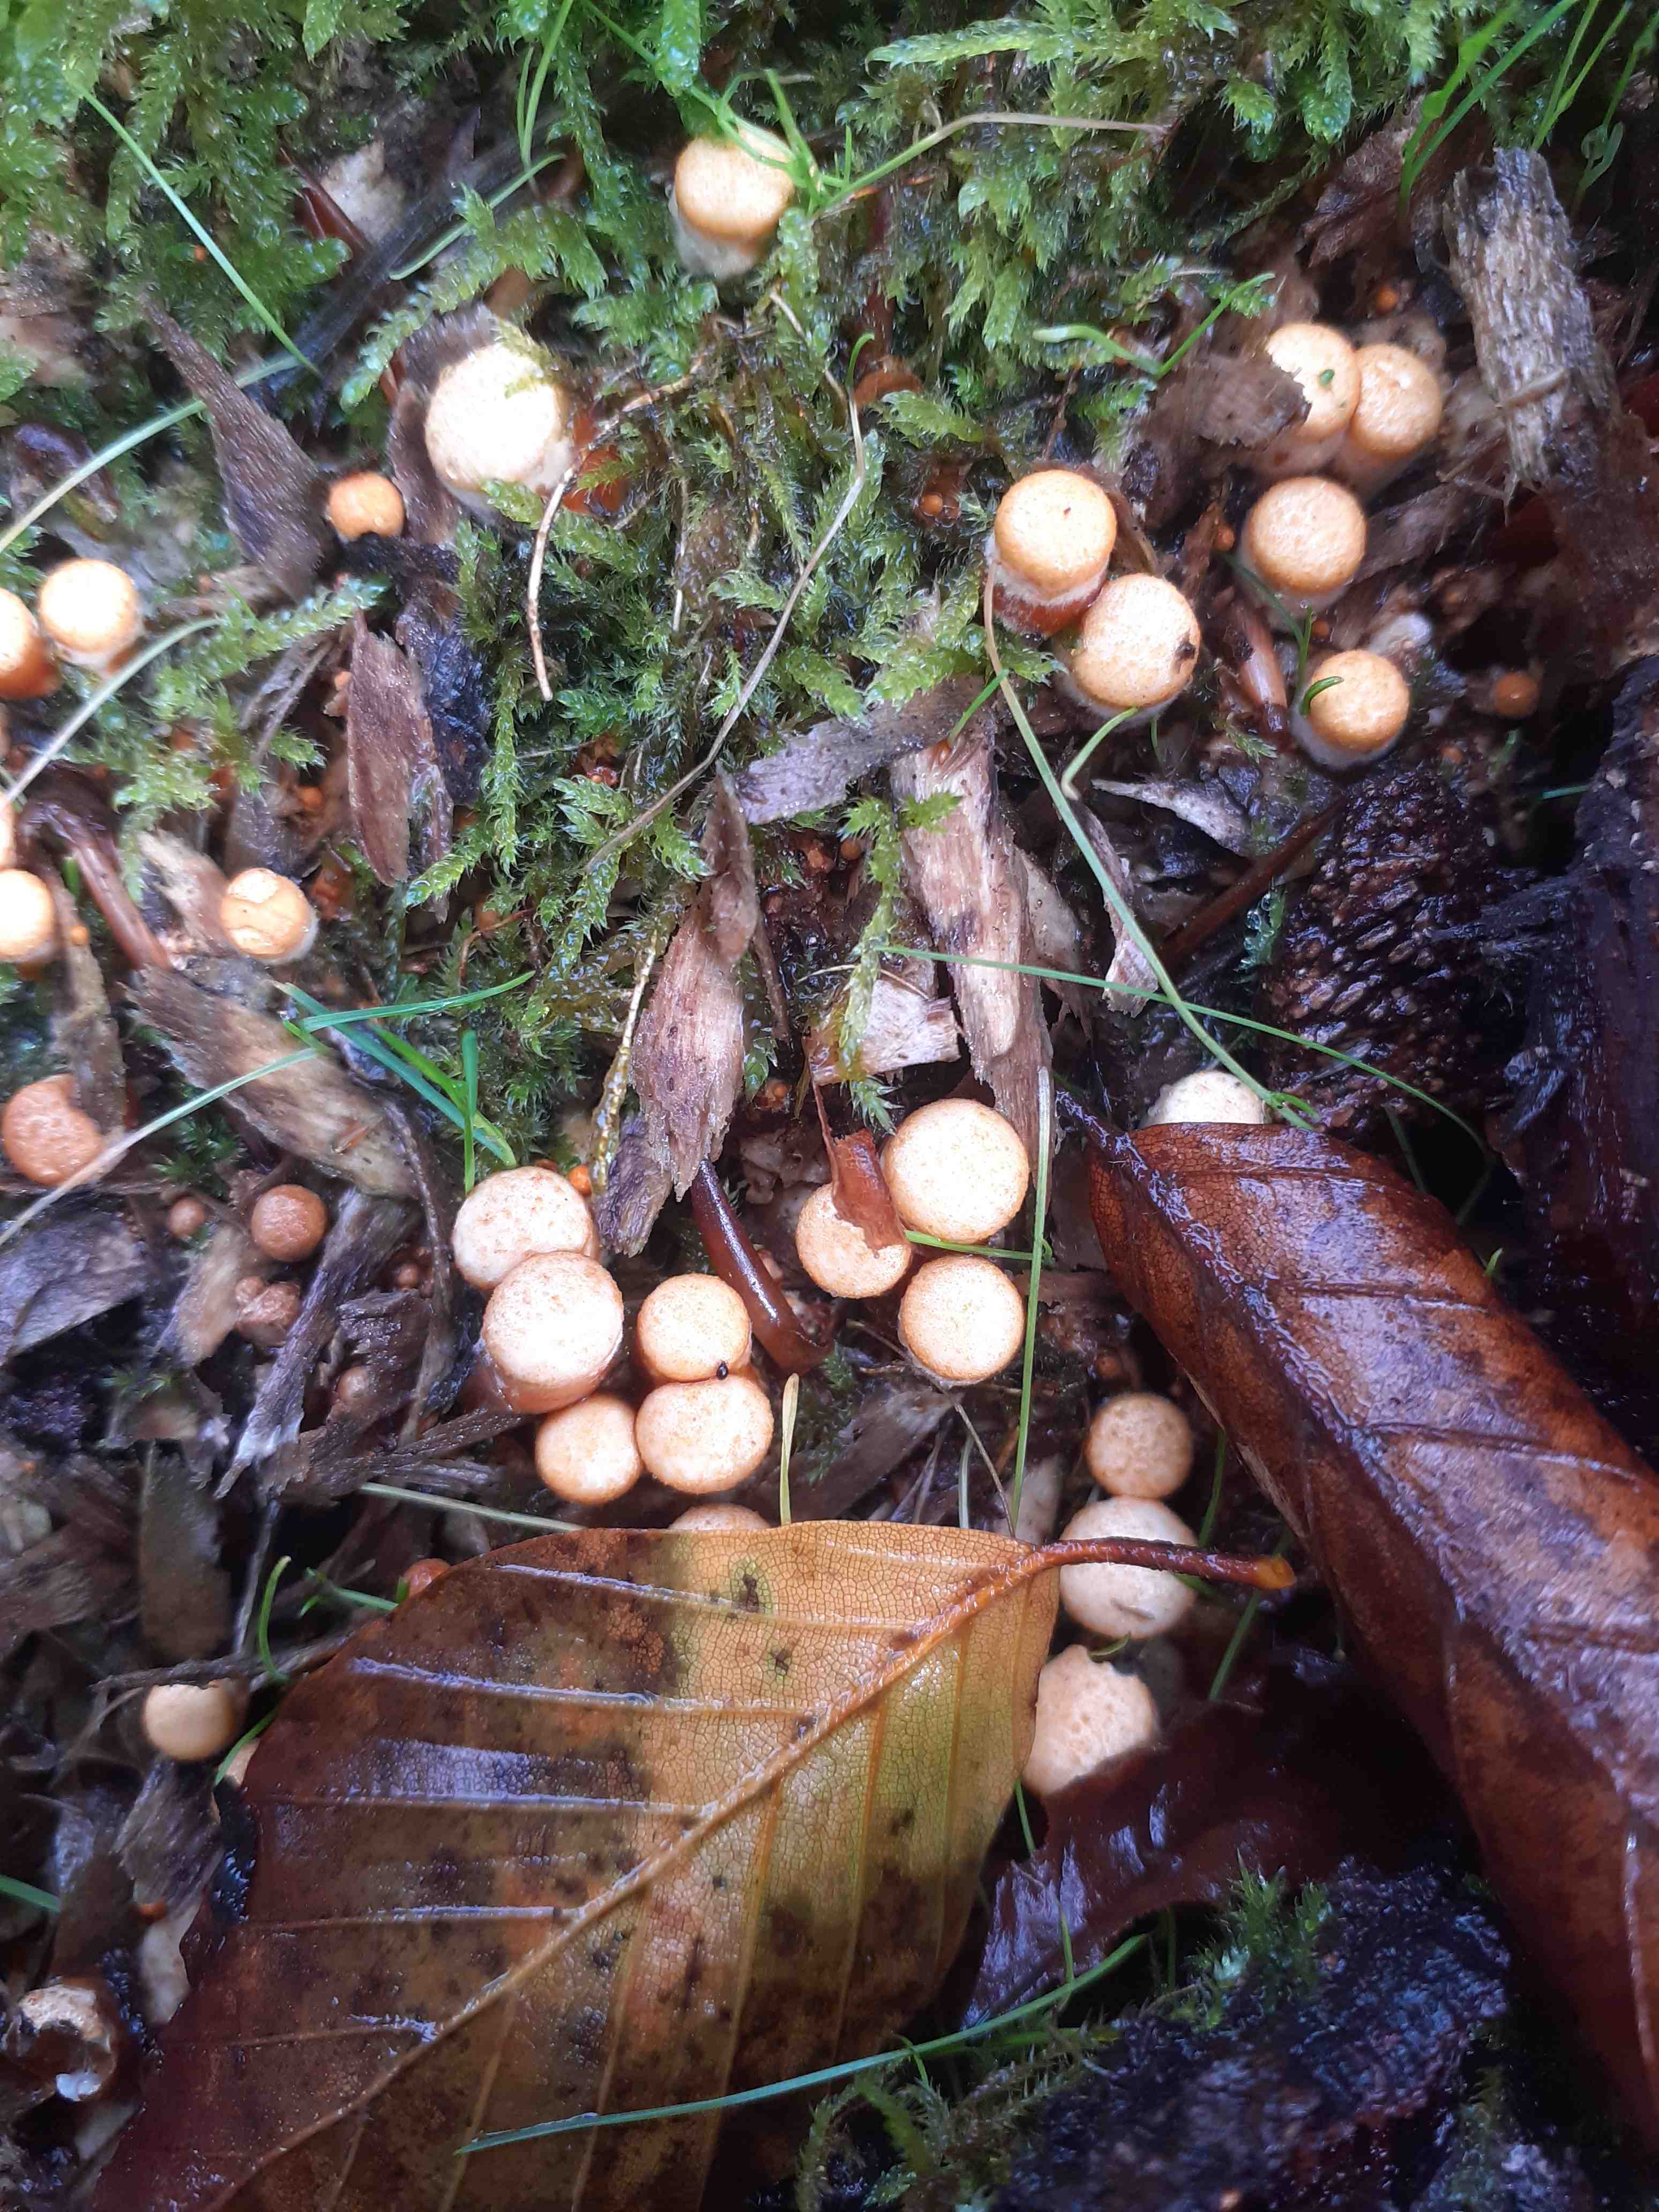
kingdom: Fungi
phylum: Basidiomycota
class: Agaricomycetes
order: Agaricales
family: Nidulariaceae
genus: Crucibulum
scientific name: Crucibulum crucibuliforme
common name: krukkesvamp
